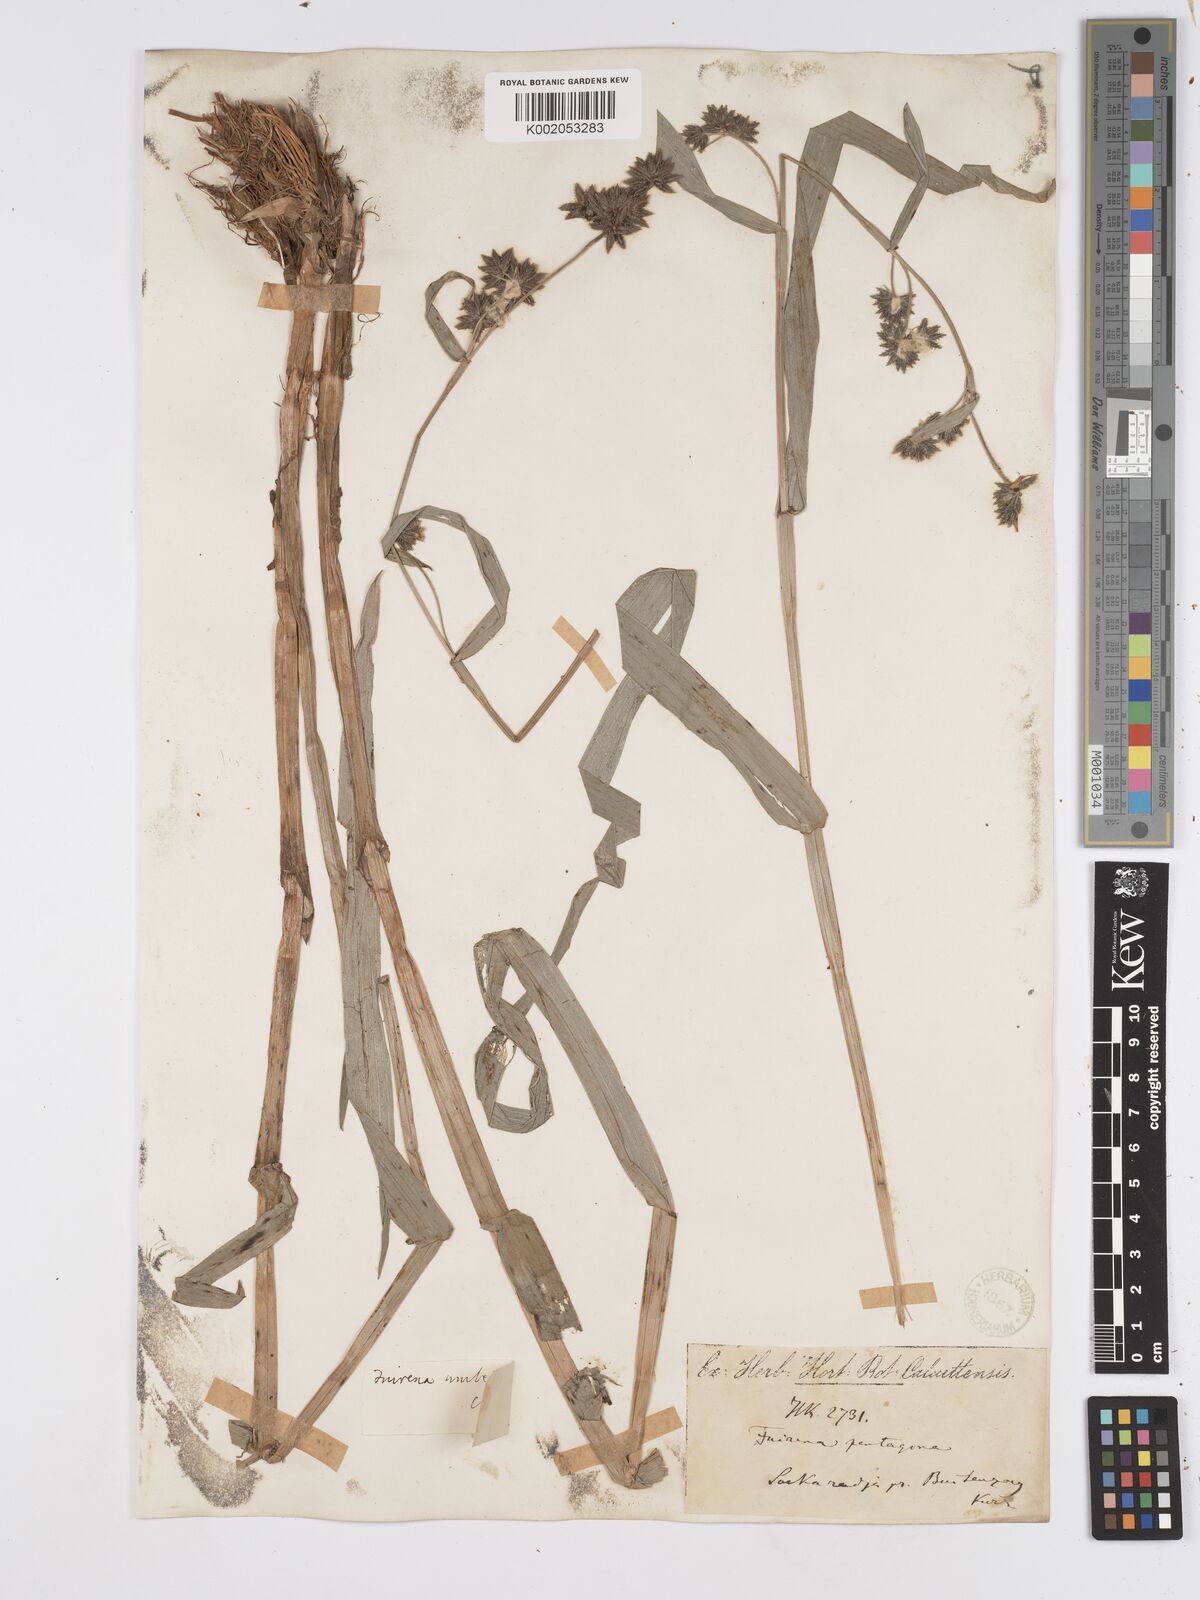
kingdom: Plantae
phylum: Tracheophyta
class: Liliopsida
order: Poales
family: Cyperaceae
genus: Fuirena
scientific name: Fuirena umbellata
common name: Yefen
